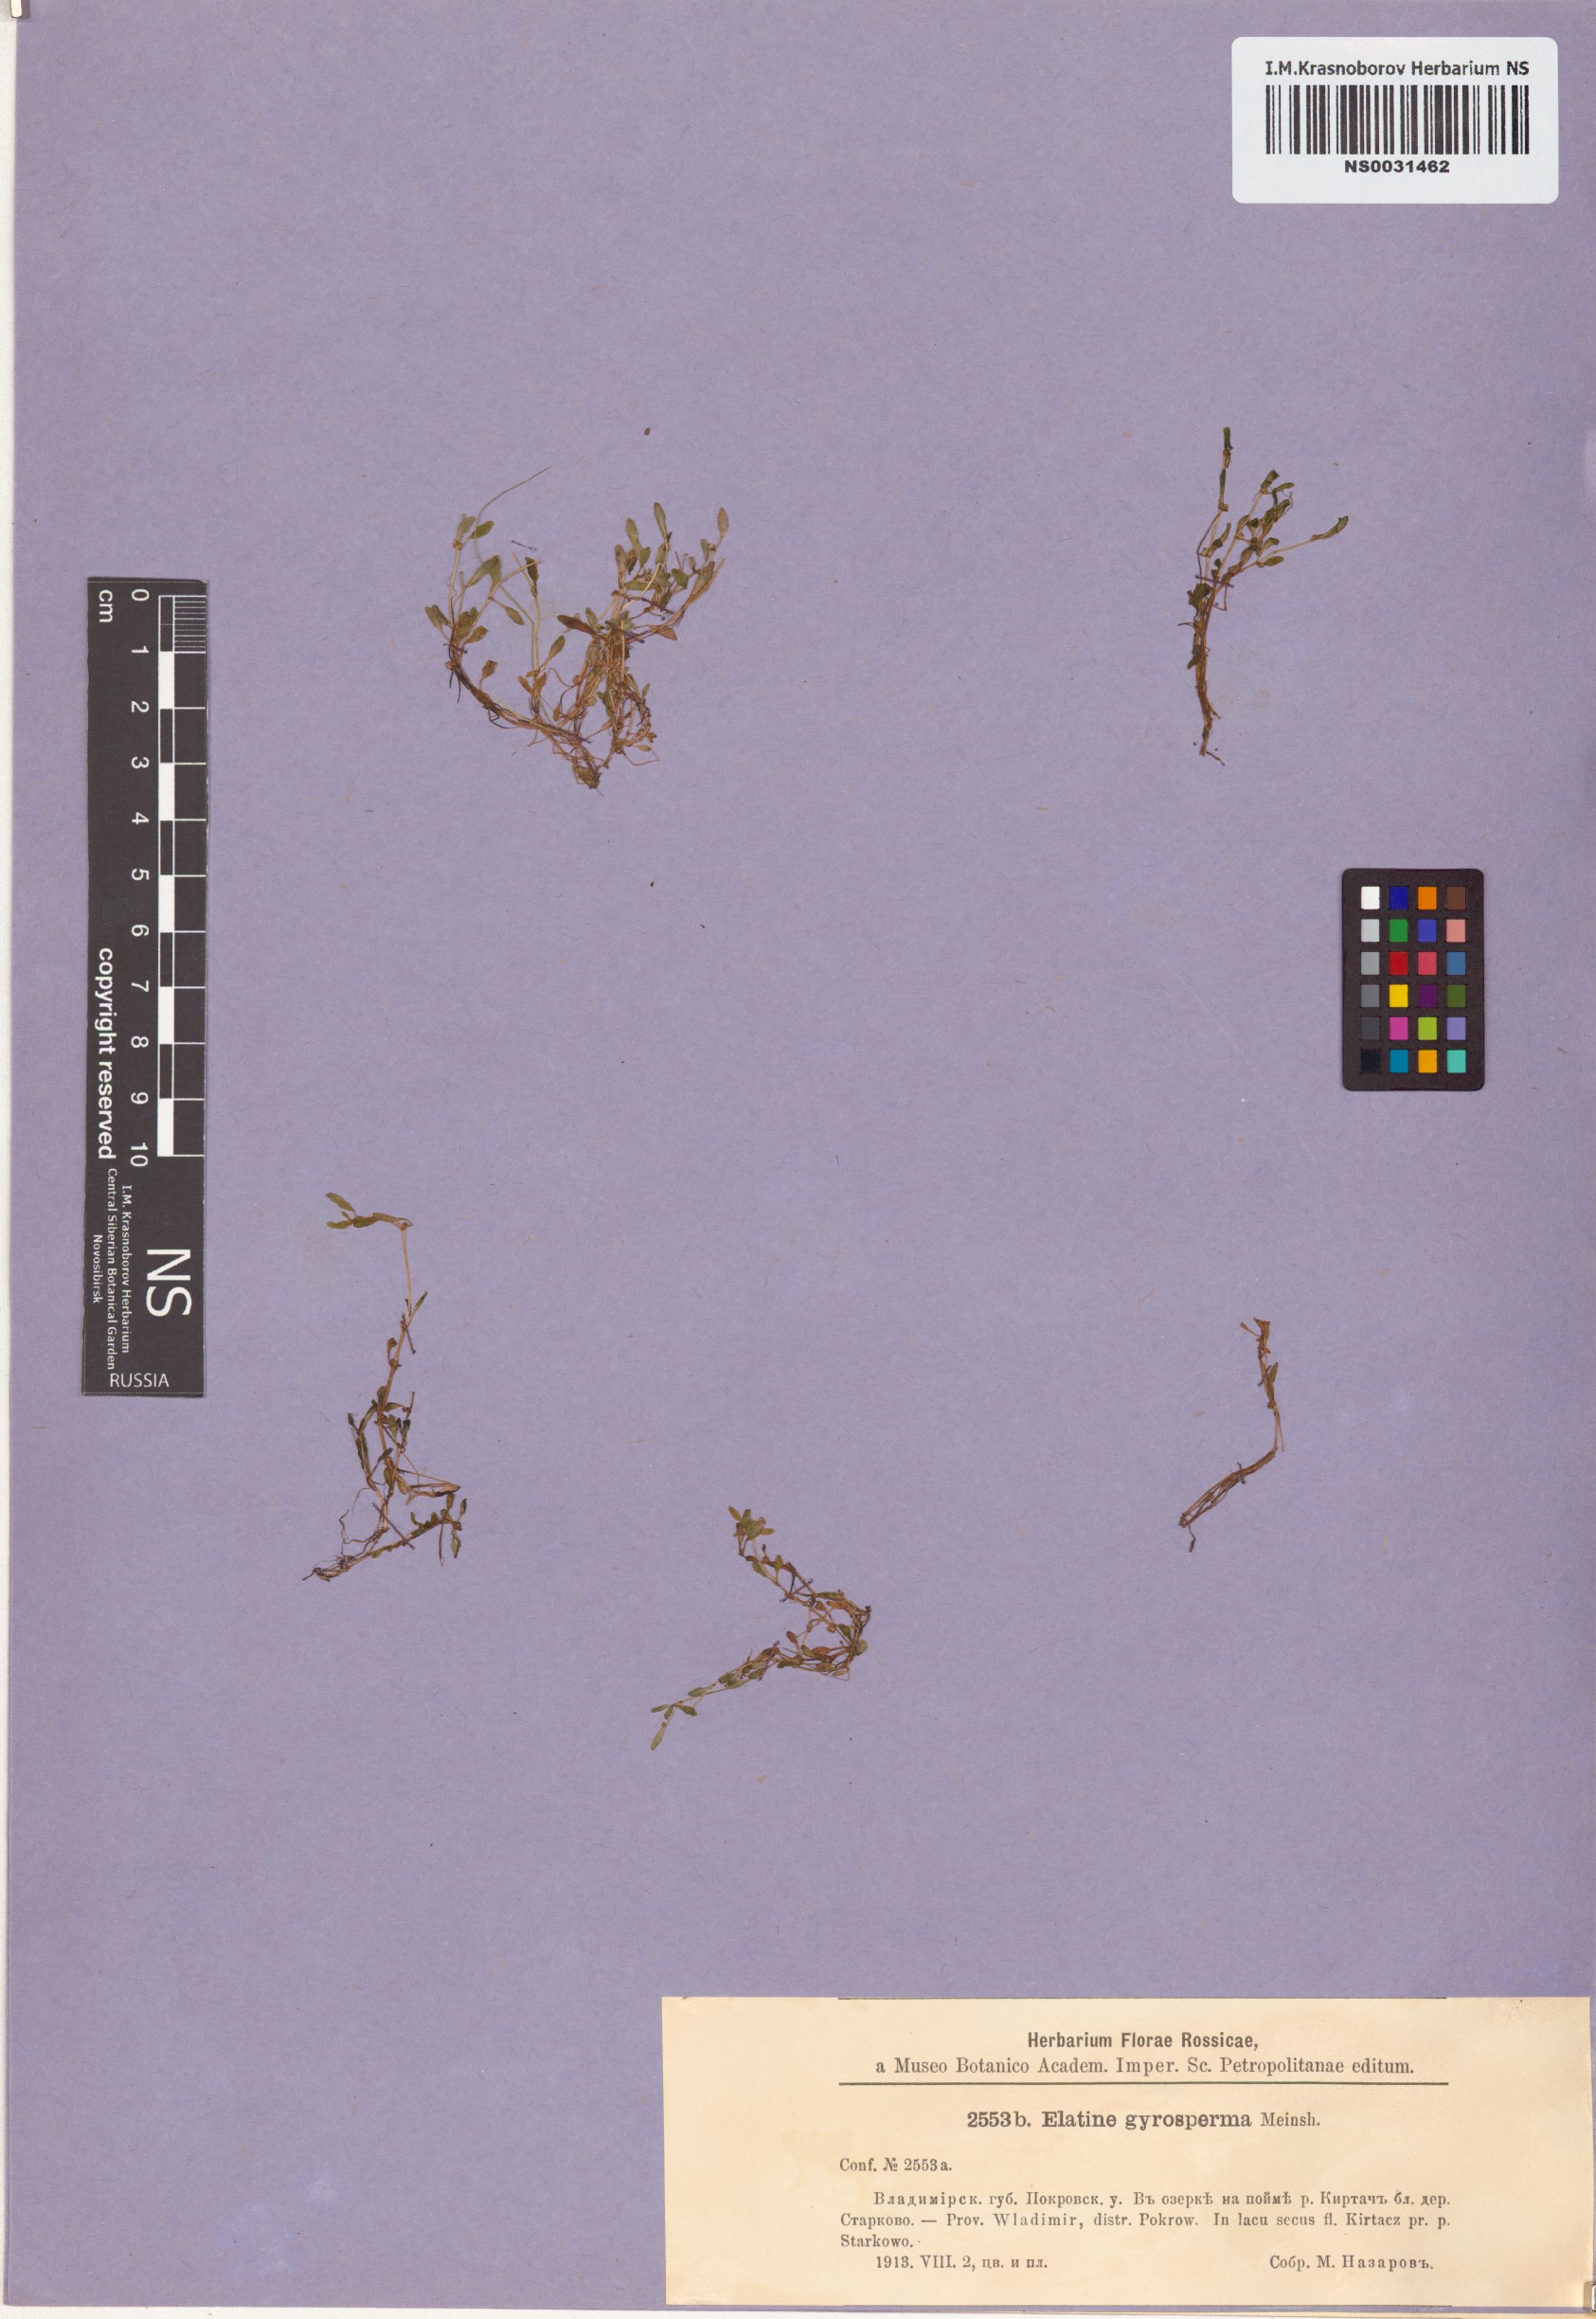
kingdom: Plantae
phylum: Tracheophyta
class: Magnoliopsida
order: Malpighiales
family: Elatinaceae
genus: Elatine
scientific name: Elatine hydropiper
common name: Eight-stamened waterwort
